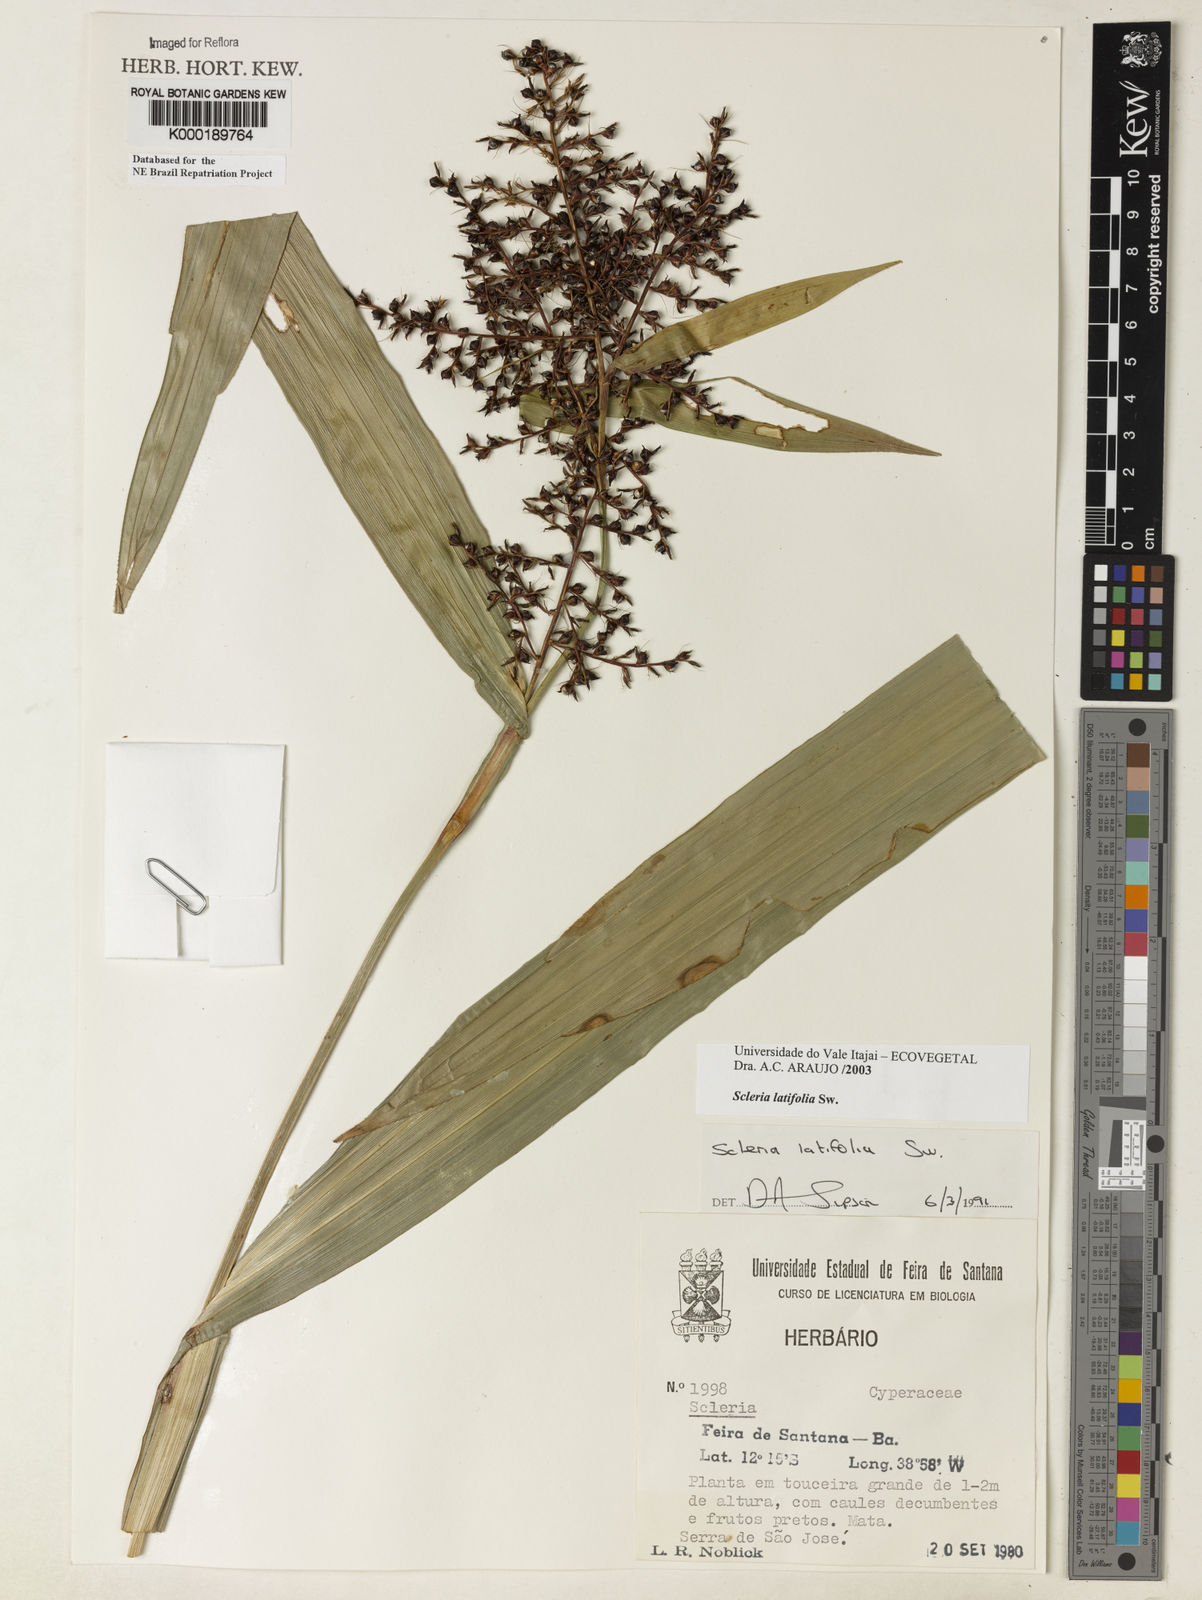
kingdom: Plantae
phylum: Tracheophyta
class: Liliopsida
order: Poales
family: Cyperaceae
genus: Scleria
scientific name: Scleria latifolia
